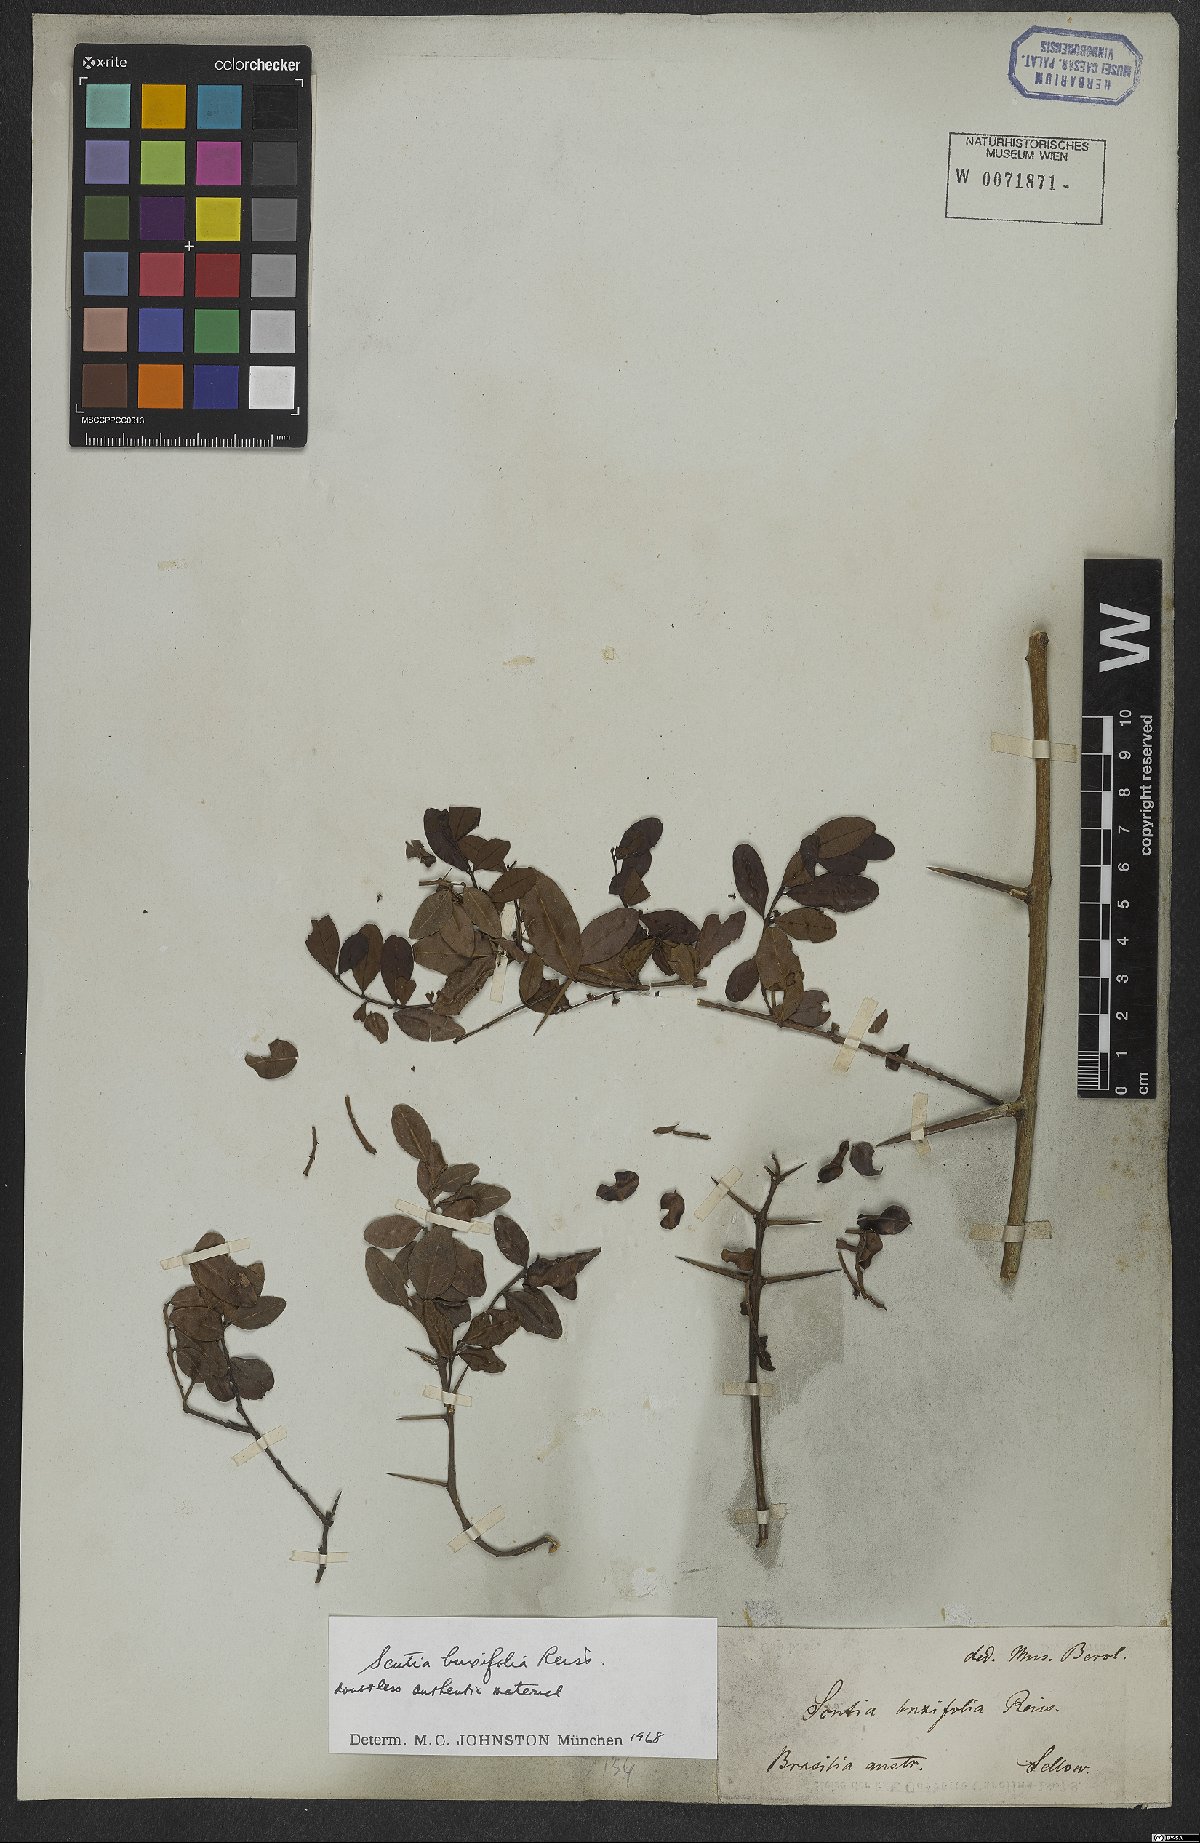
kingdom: Plantae
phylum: Tracheophyta
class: Magnoliopsida
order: Rosales
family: Rhamnaceae
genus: Scutia
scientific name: Scutia buxifolia
